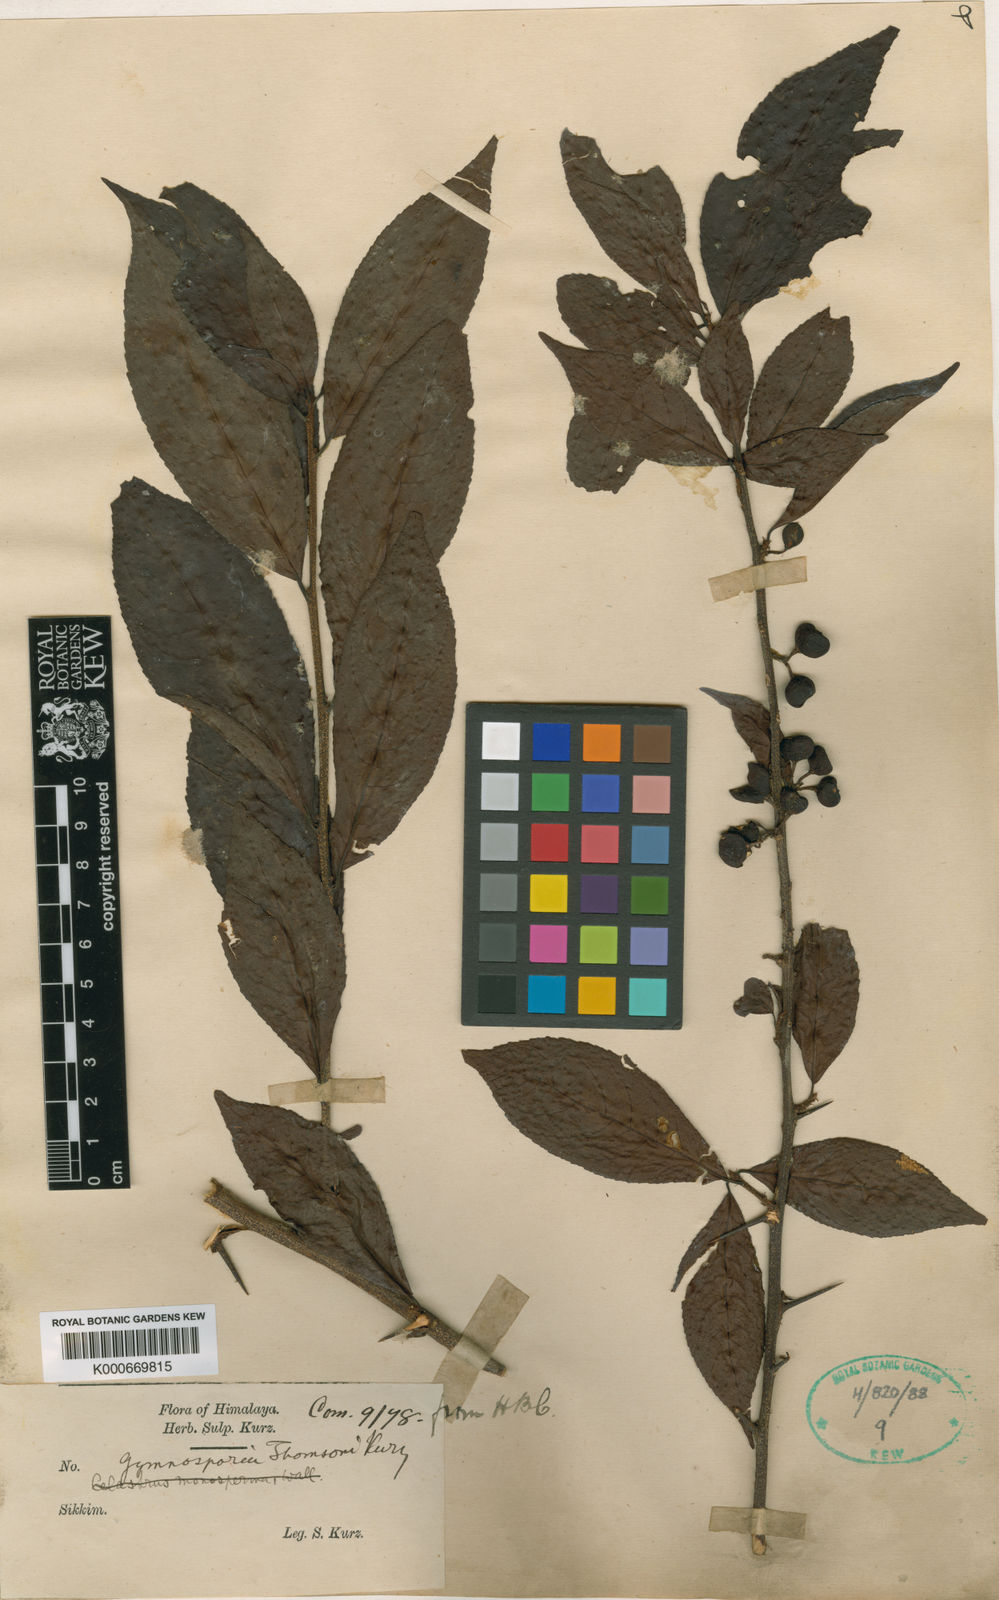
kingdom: Plantae
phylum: Tracheophyta
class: Magnoliopsida
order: Celastrales
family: Celastraceae
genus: Gymnosporia
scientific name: Gymnosporia thomsonii
